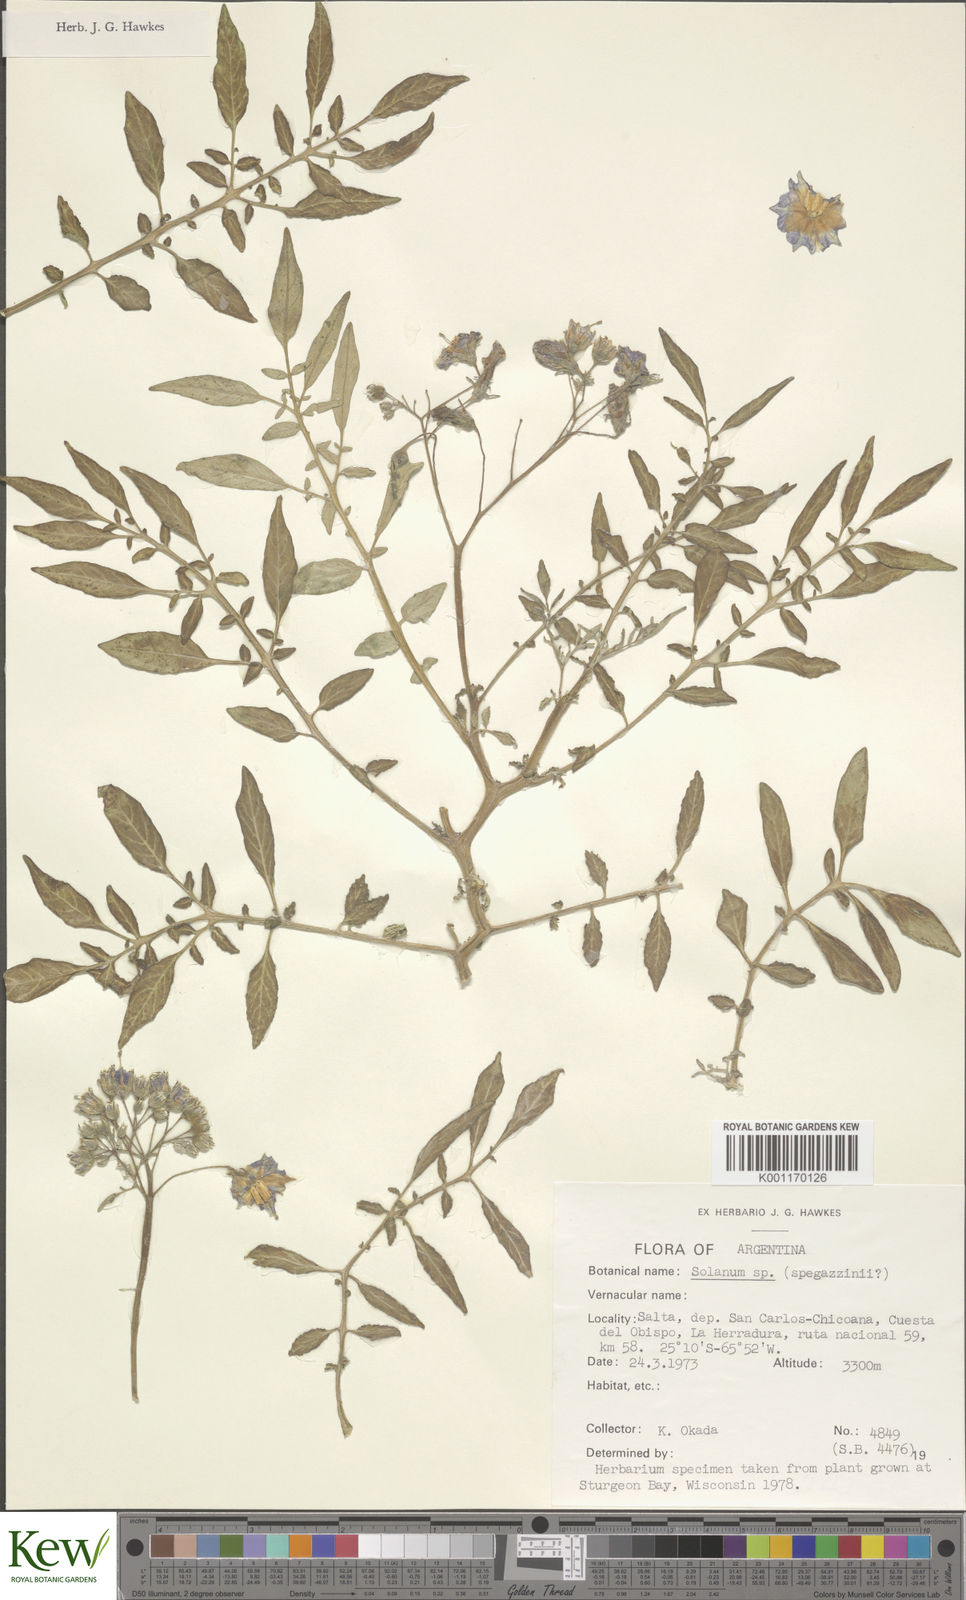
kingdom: Plantae
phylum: Tracheophyta
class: Magnoliopsida
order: Solanales
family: Solanaceae
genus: Solanum
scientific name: Solanum brevicaule
